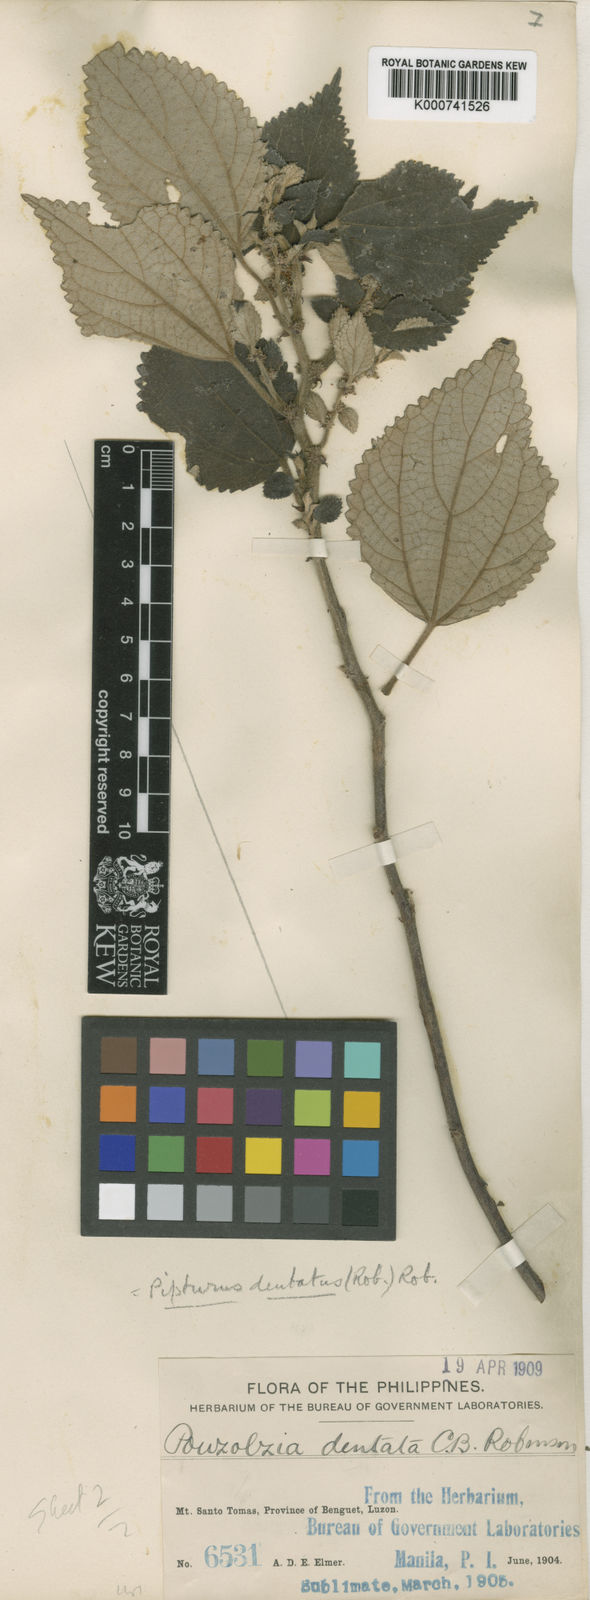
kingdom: Plantae
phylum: Tracheophyta
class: Magnoliopsida
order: Rosales
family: Urticaceae
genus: Pipturus
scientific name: Pipturus
